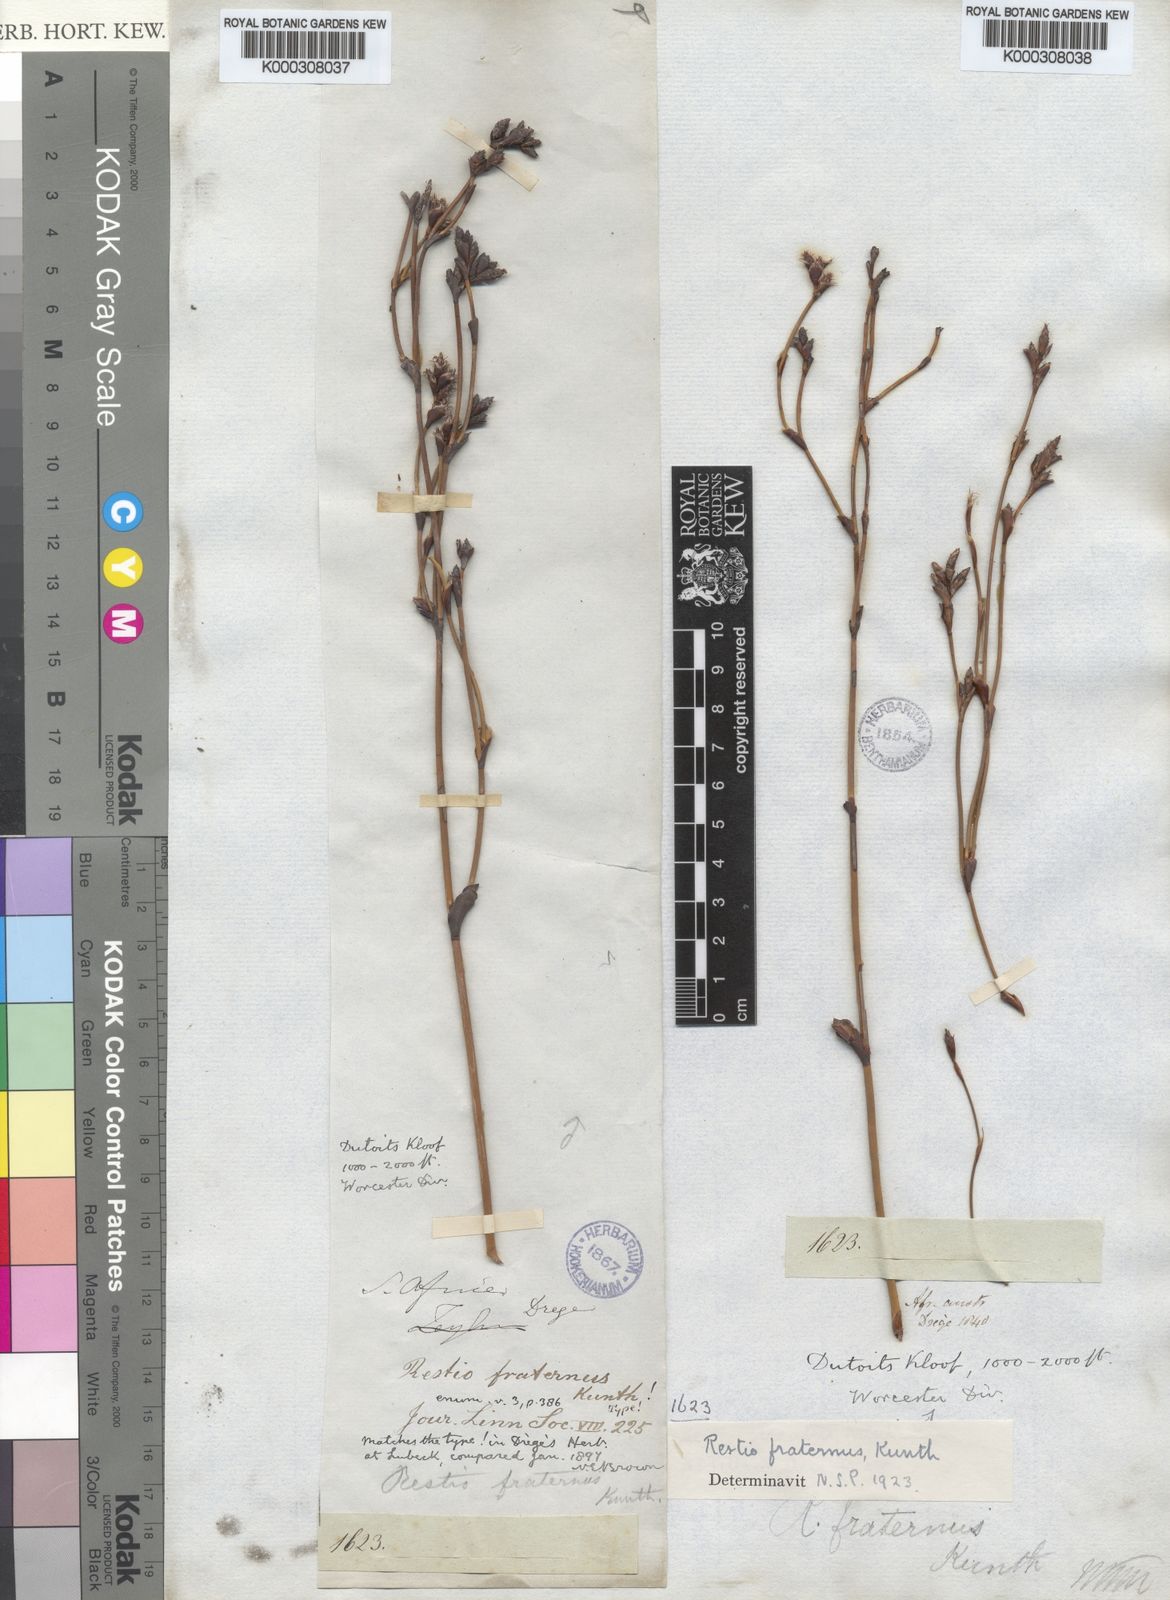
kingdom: Plantae
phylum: Tracheophyta
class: Liliopsida
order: Poales
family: Restionaceae
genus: Restio
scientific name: Restio fraternus
